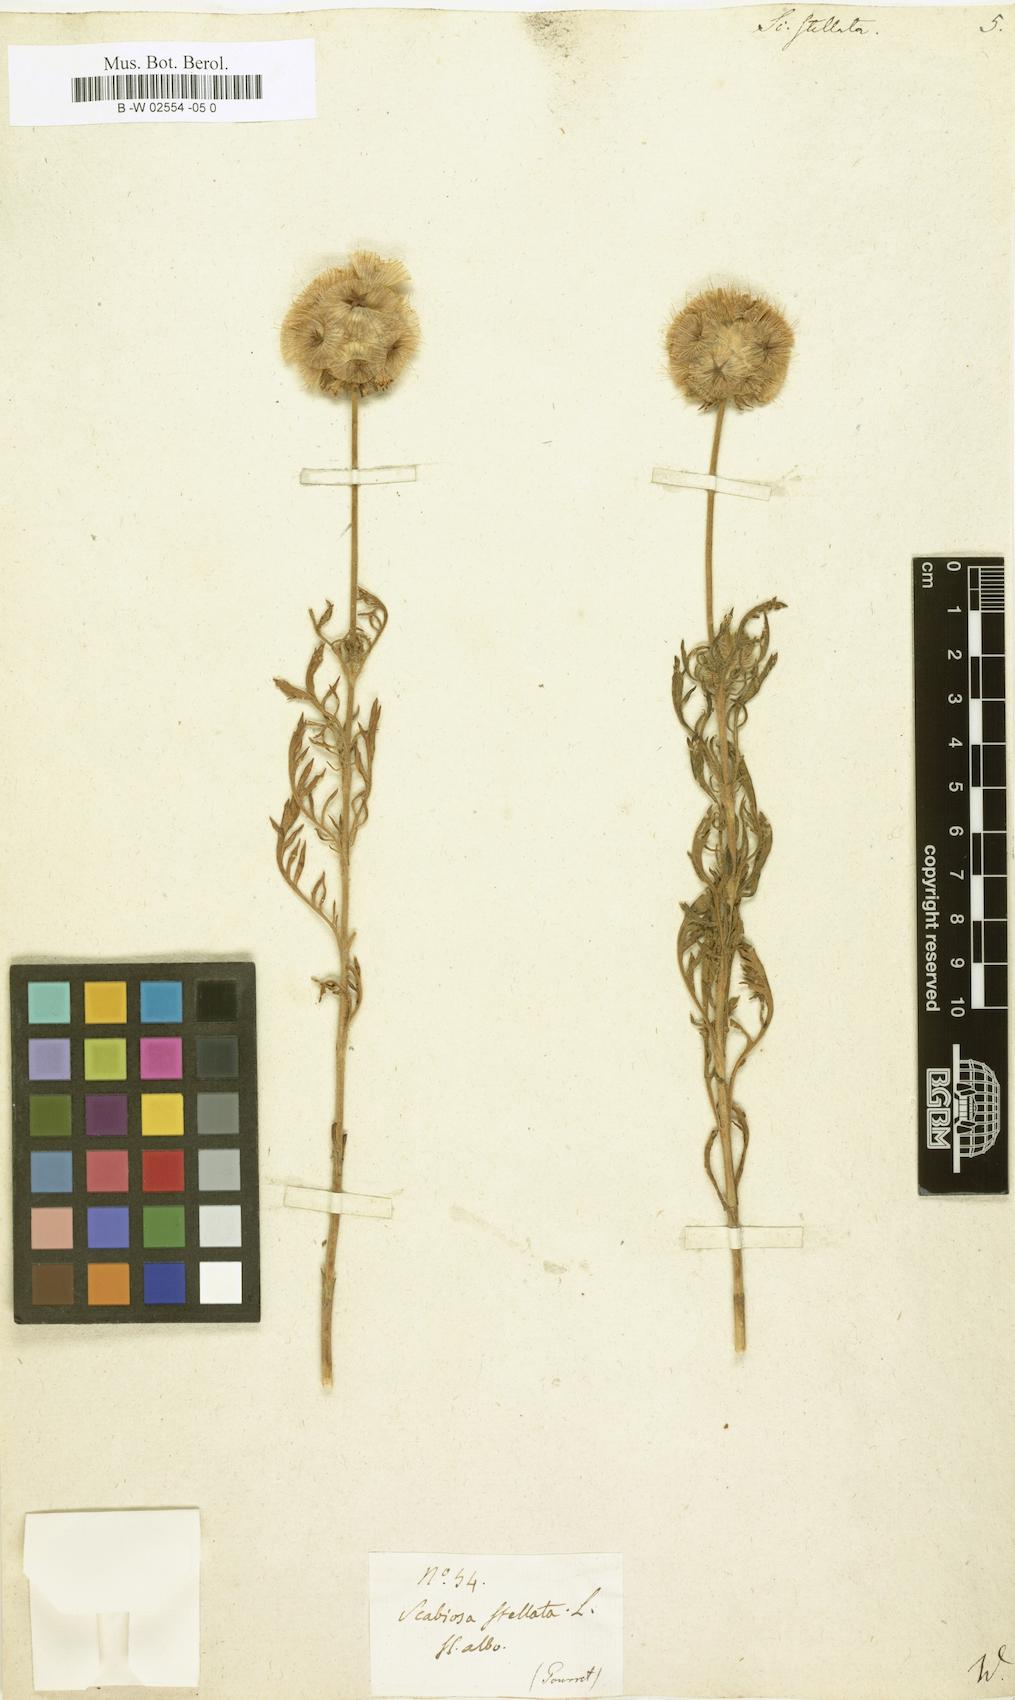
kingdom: Plantae
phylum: Tracheophyta
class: Magnoliopsida
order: Dipsacales
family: Caprifoliaceae
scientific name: Caprifoliaceae
